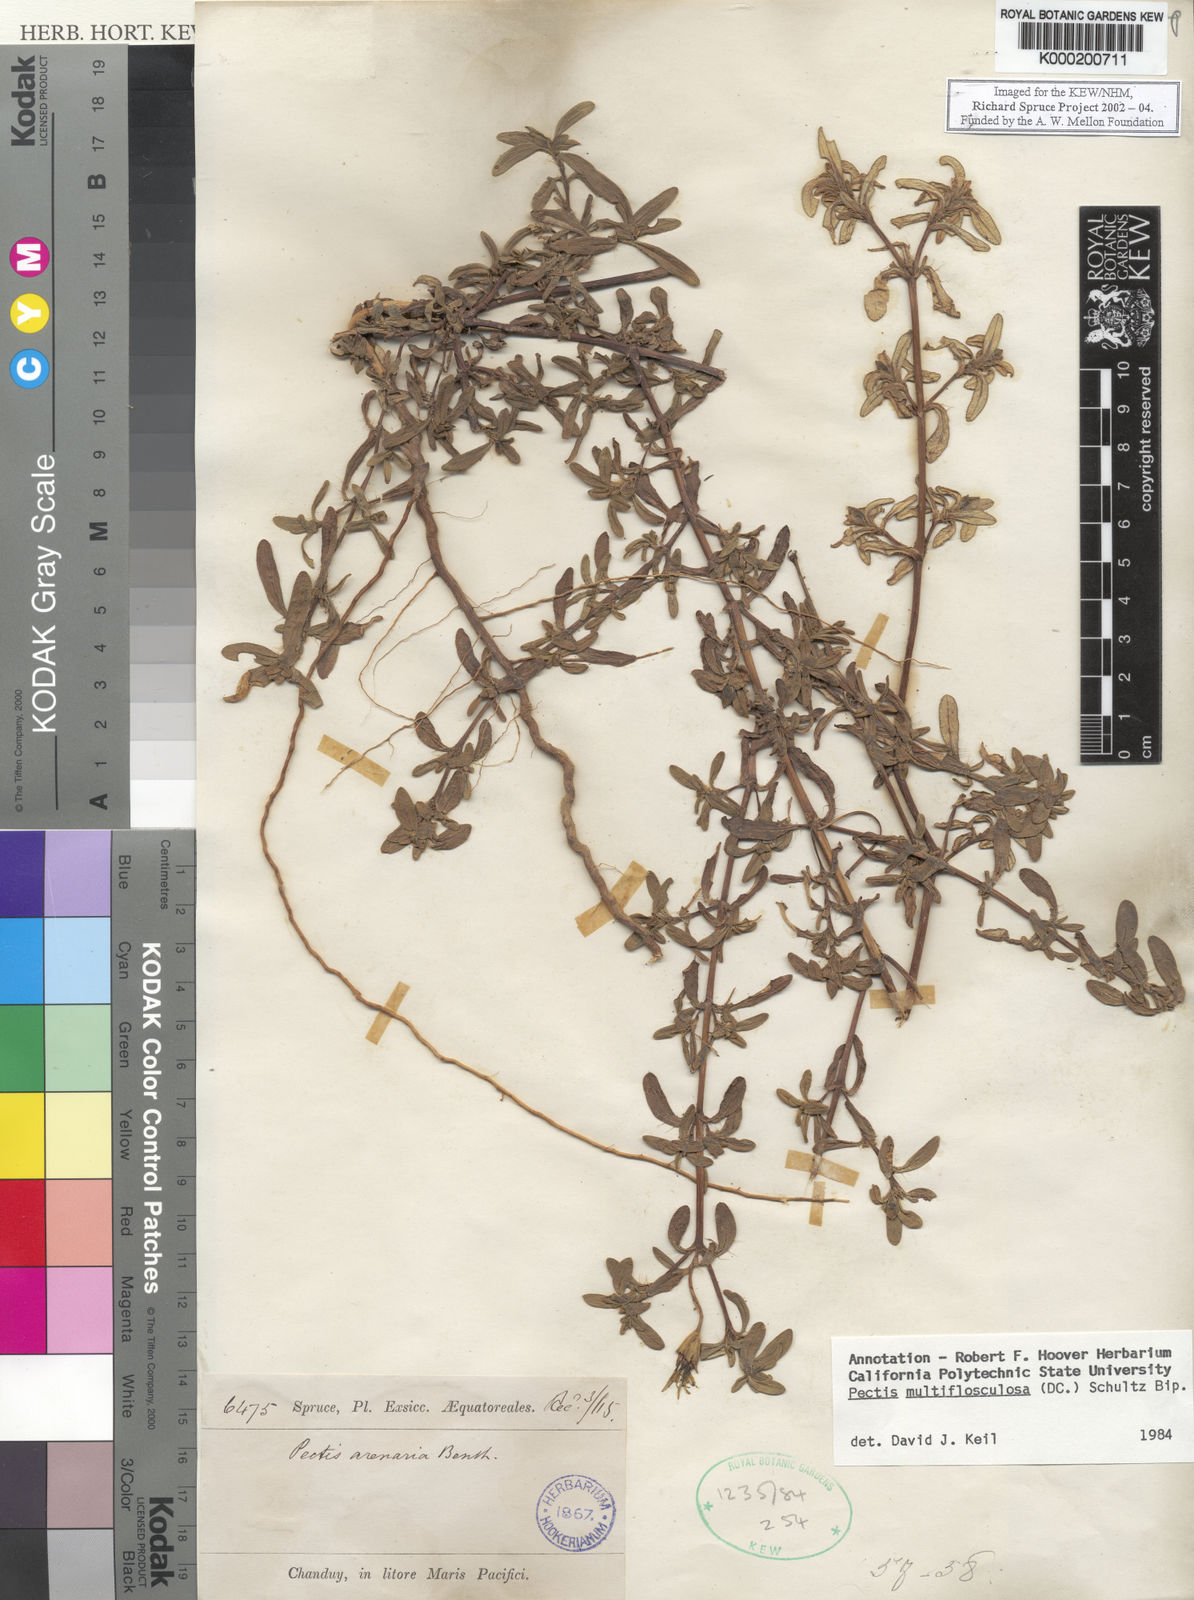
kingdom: Plantae
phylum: Tracheophyta
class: Magnoliopsida
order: Asterales
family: Asteraceae
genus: Pectis
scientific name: Pectis multiflosculosa
